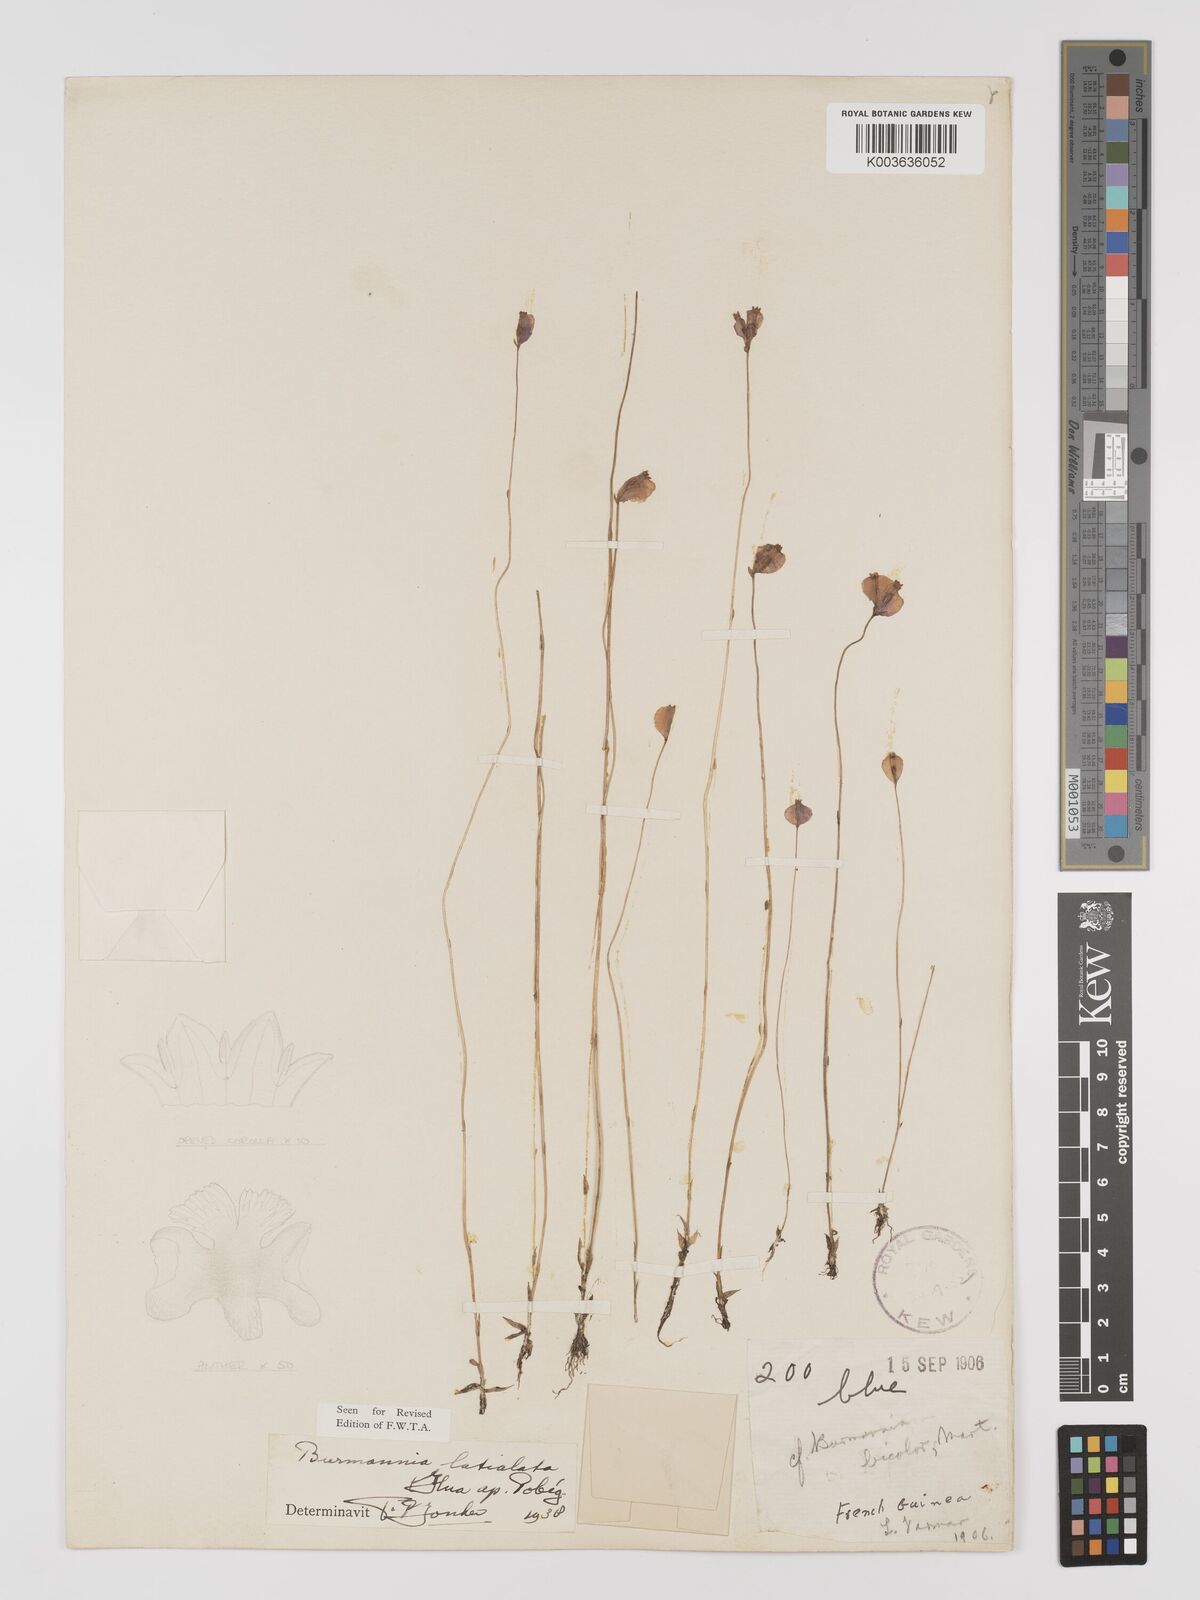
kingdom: Plantae
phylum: Tracheophyta
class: Liliopsida
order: Dioscoreales
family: Burmanniaceae
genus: Burmannia
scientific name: Burmannia madagascariensis
